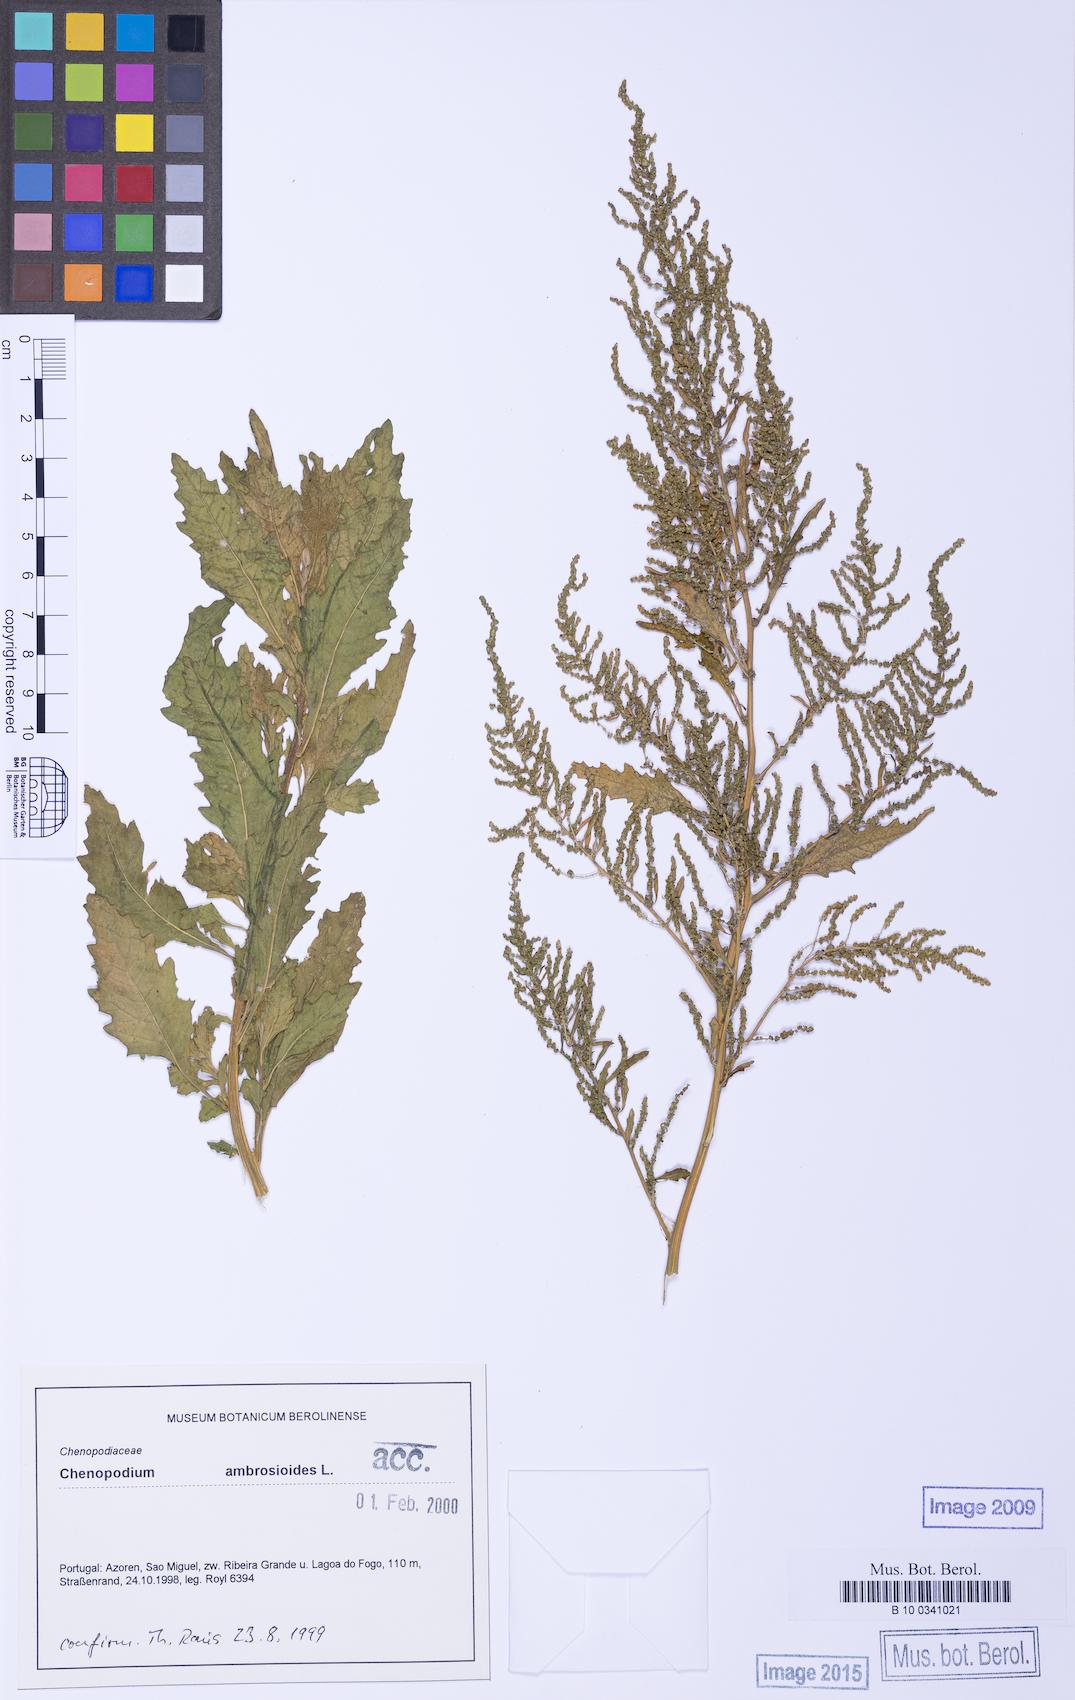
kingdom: Plantae
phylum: Tracheophyta
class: Magnoliopsida
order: Caryophyllales
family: Amaranthaceae
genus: Dysphania
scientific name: Dysphania ambrosioides
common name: Wormseed
